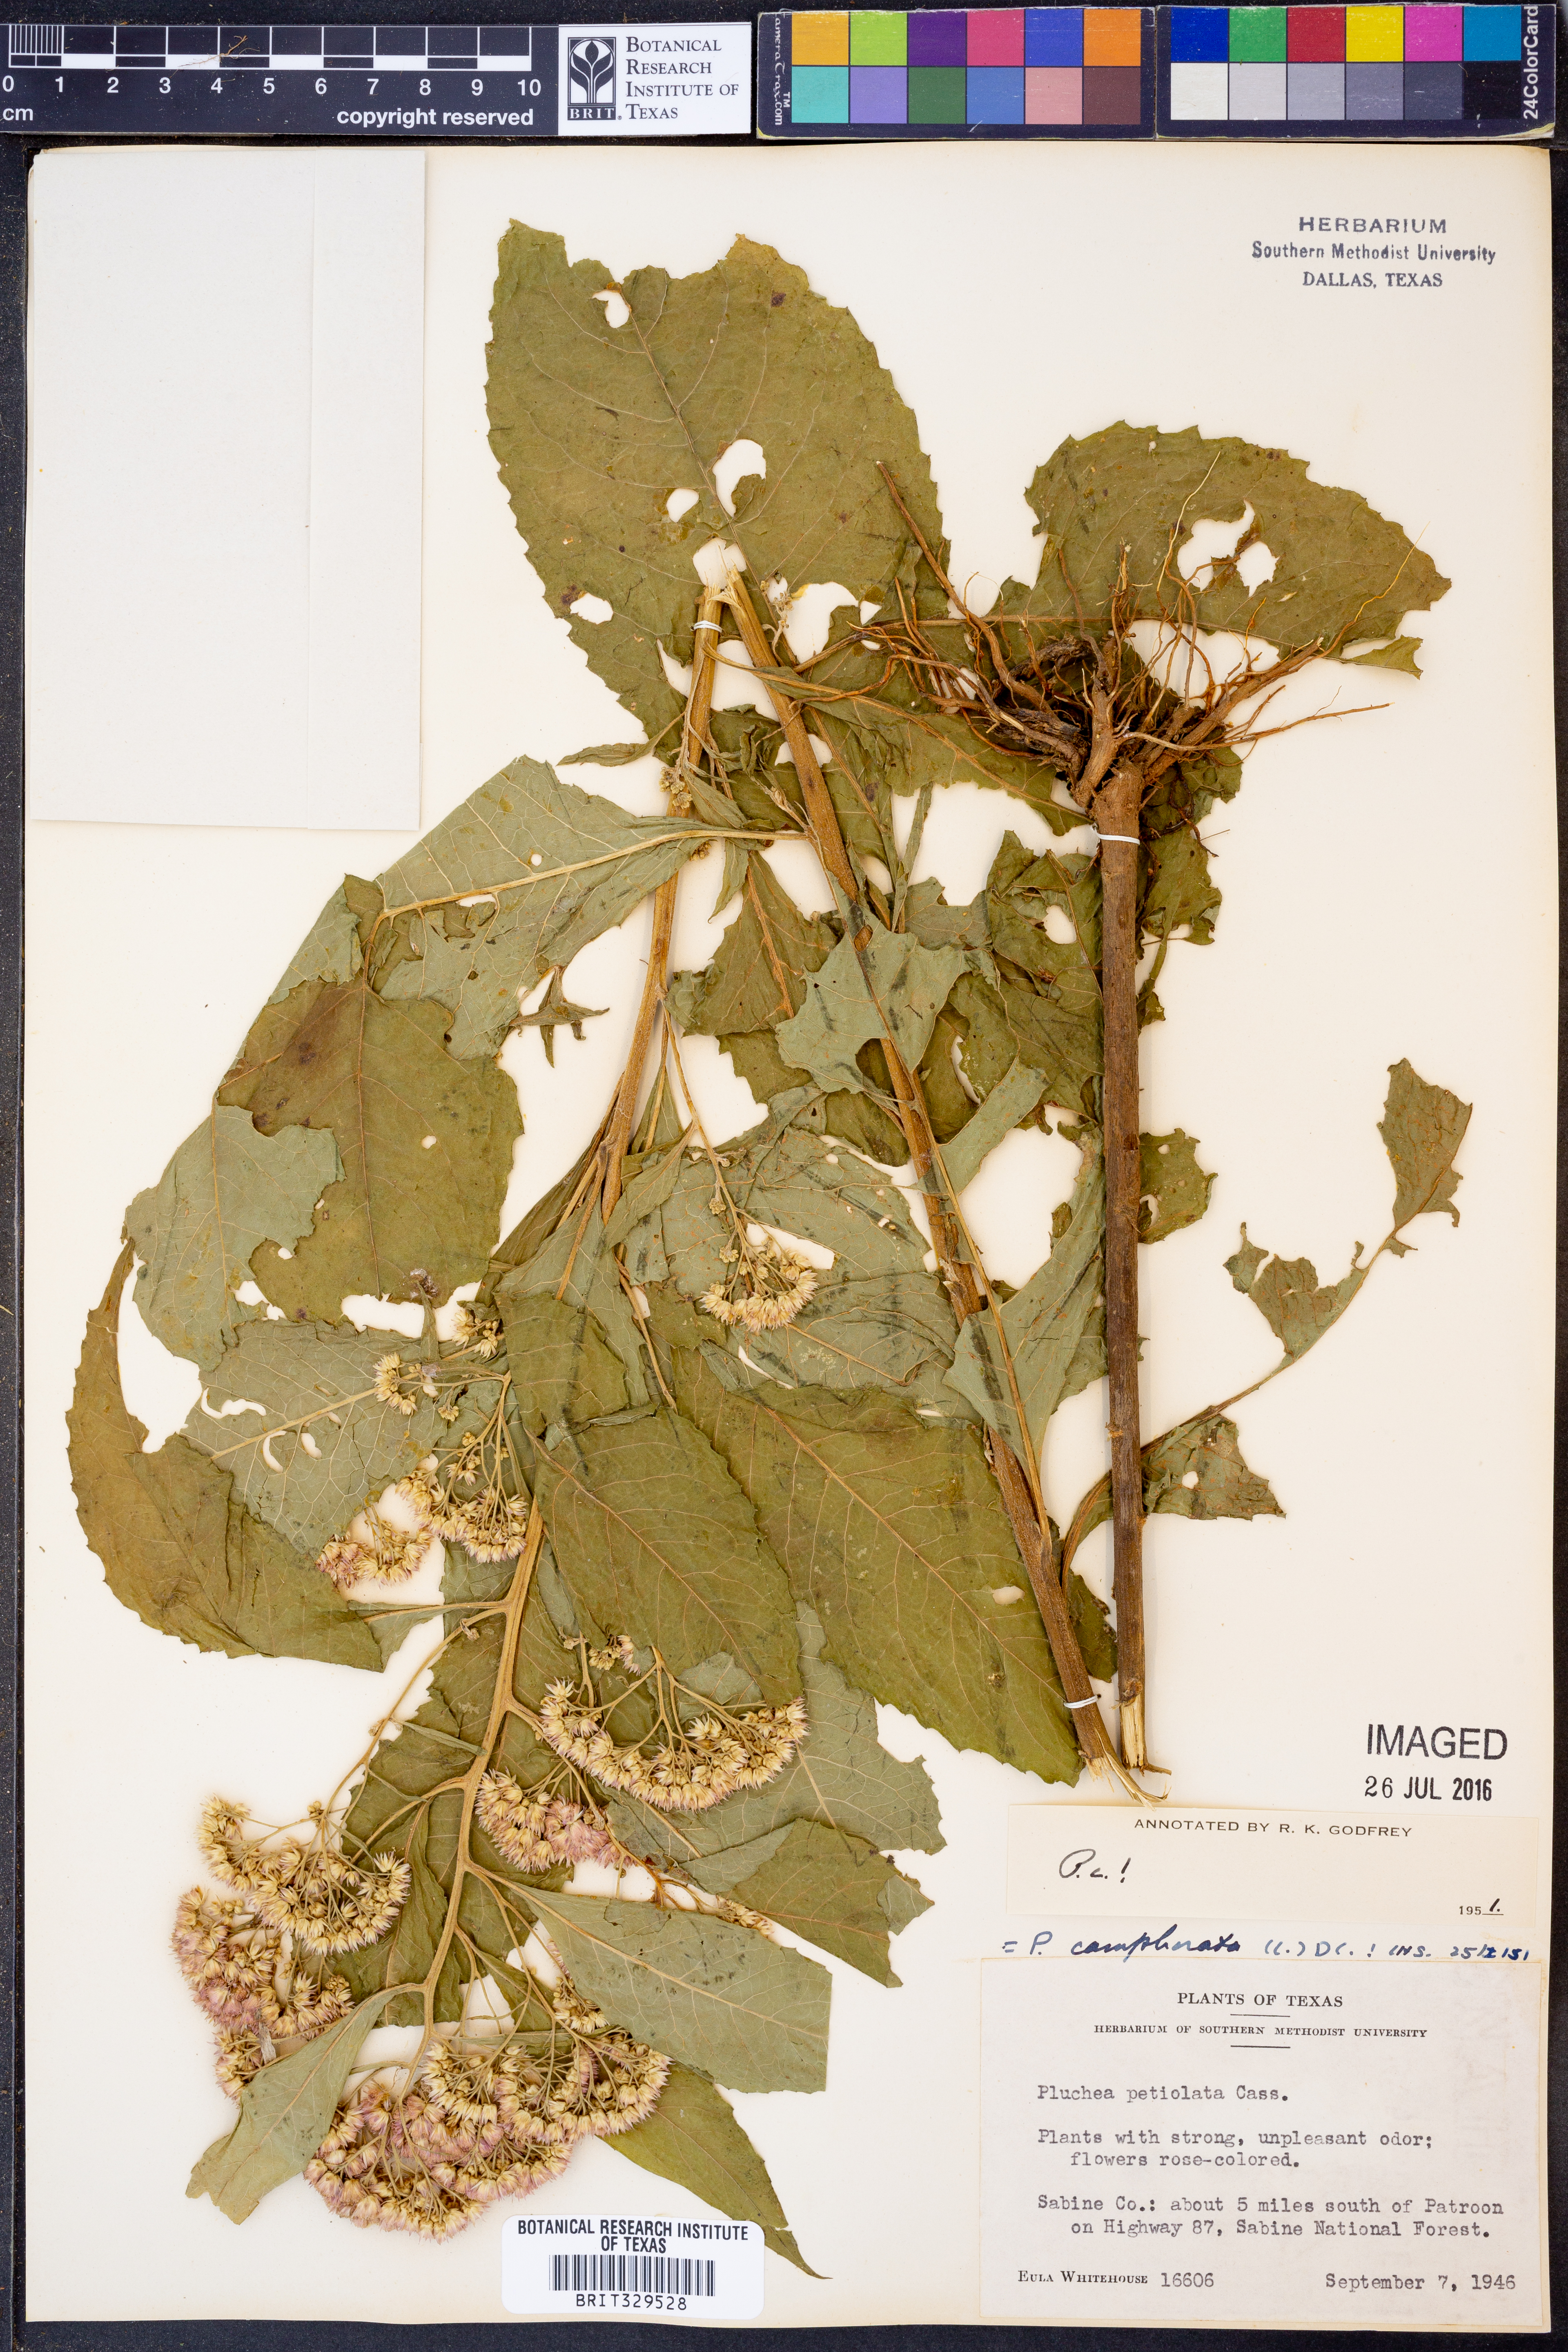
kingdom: Plantae
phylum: Tracheophyta
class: Magnoliopsida
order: Asterales
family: Asteraceae
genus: Pluchea
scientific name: Pluchea camphorata
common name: Camphor pluchea
